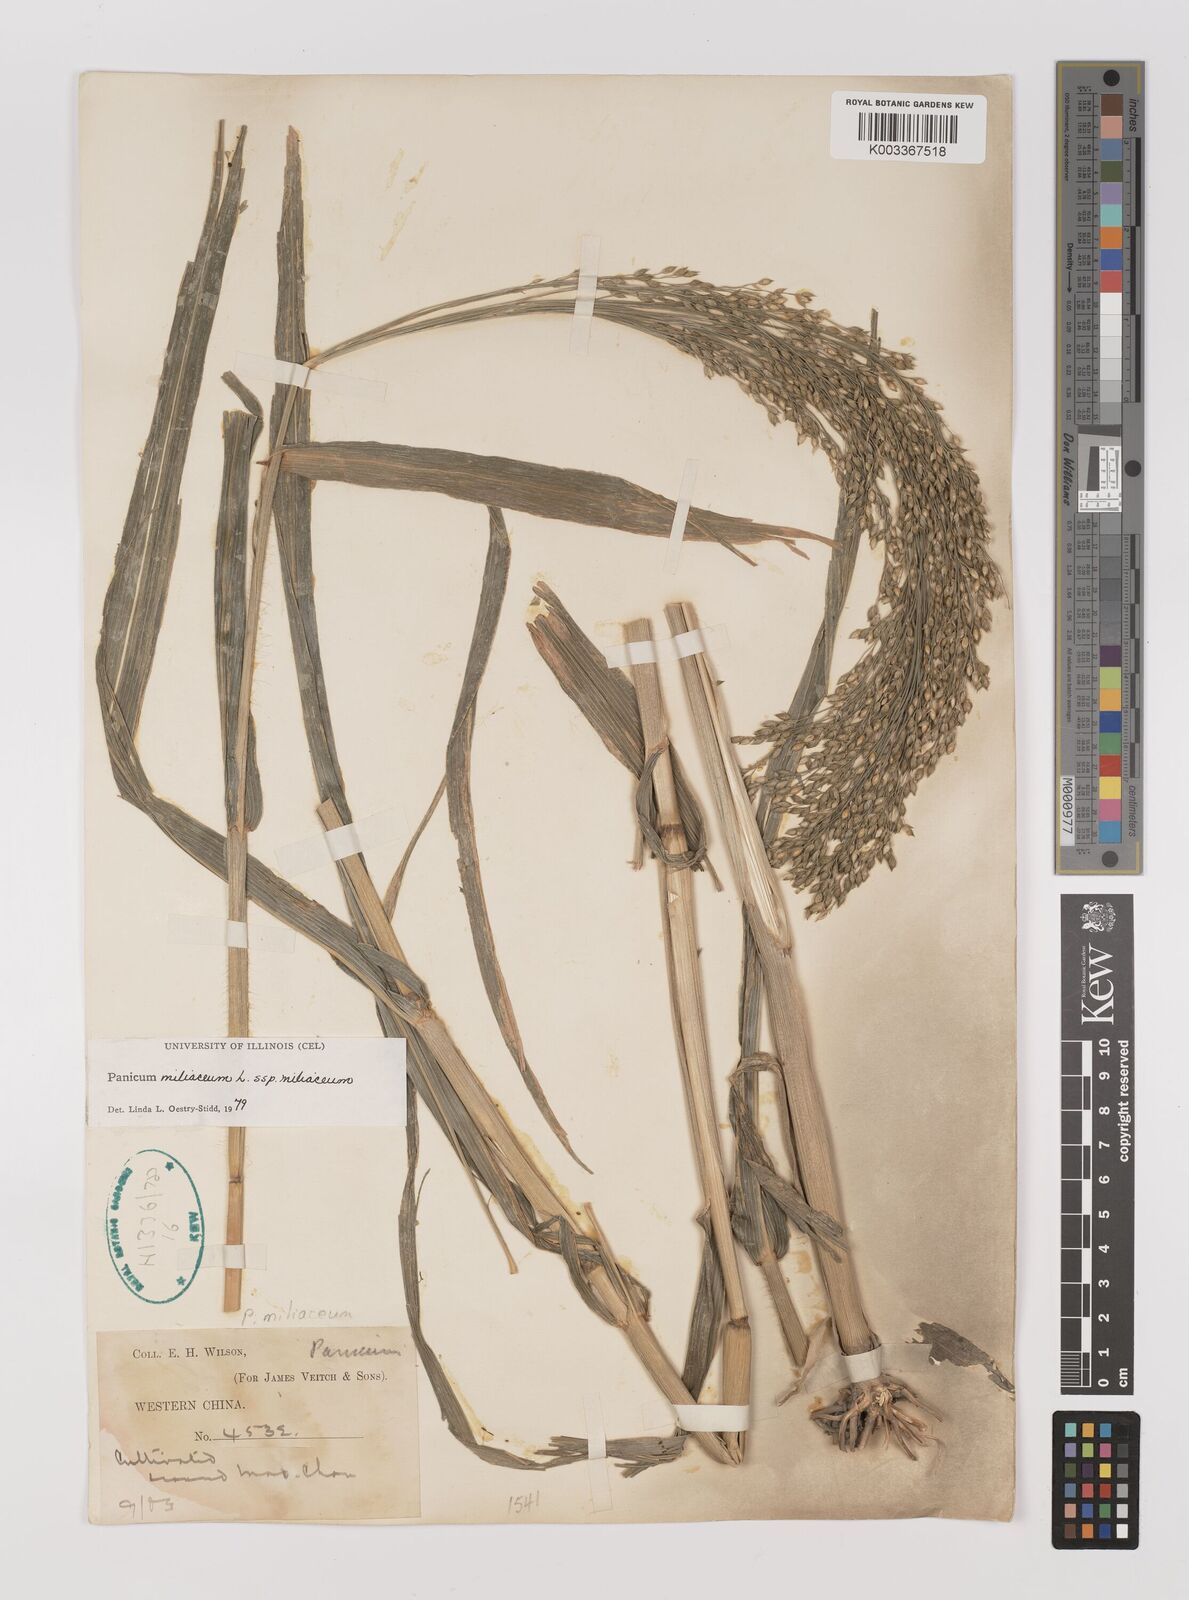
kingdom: Plantae
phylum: Tracheophyta
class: Liliopsida
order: Poales
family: Poaceae
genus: Panicum
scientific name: Panicum miliaceum
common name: Common millet
